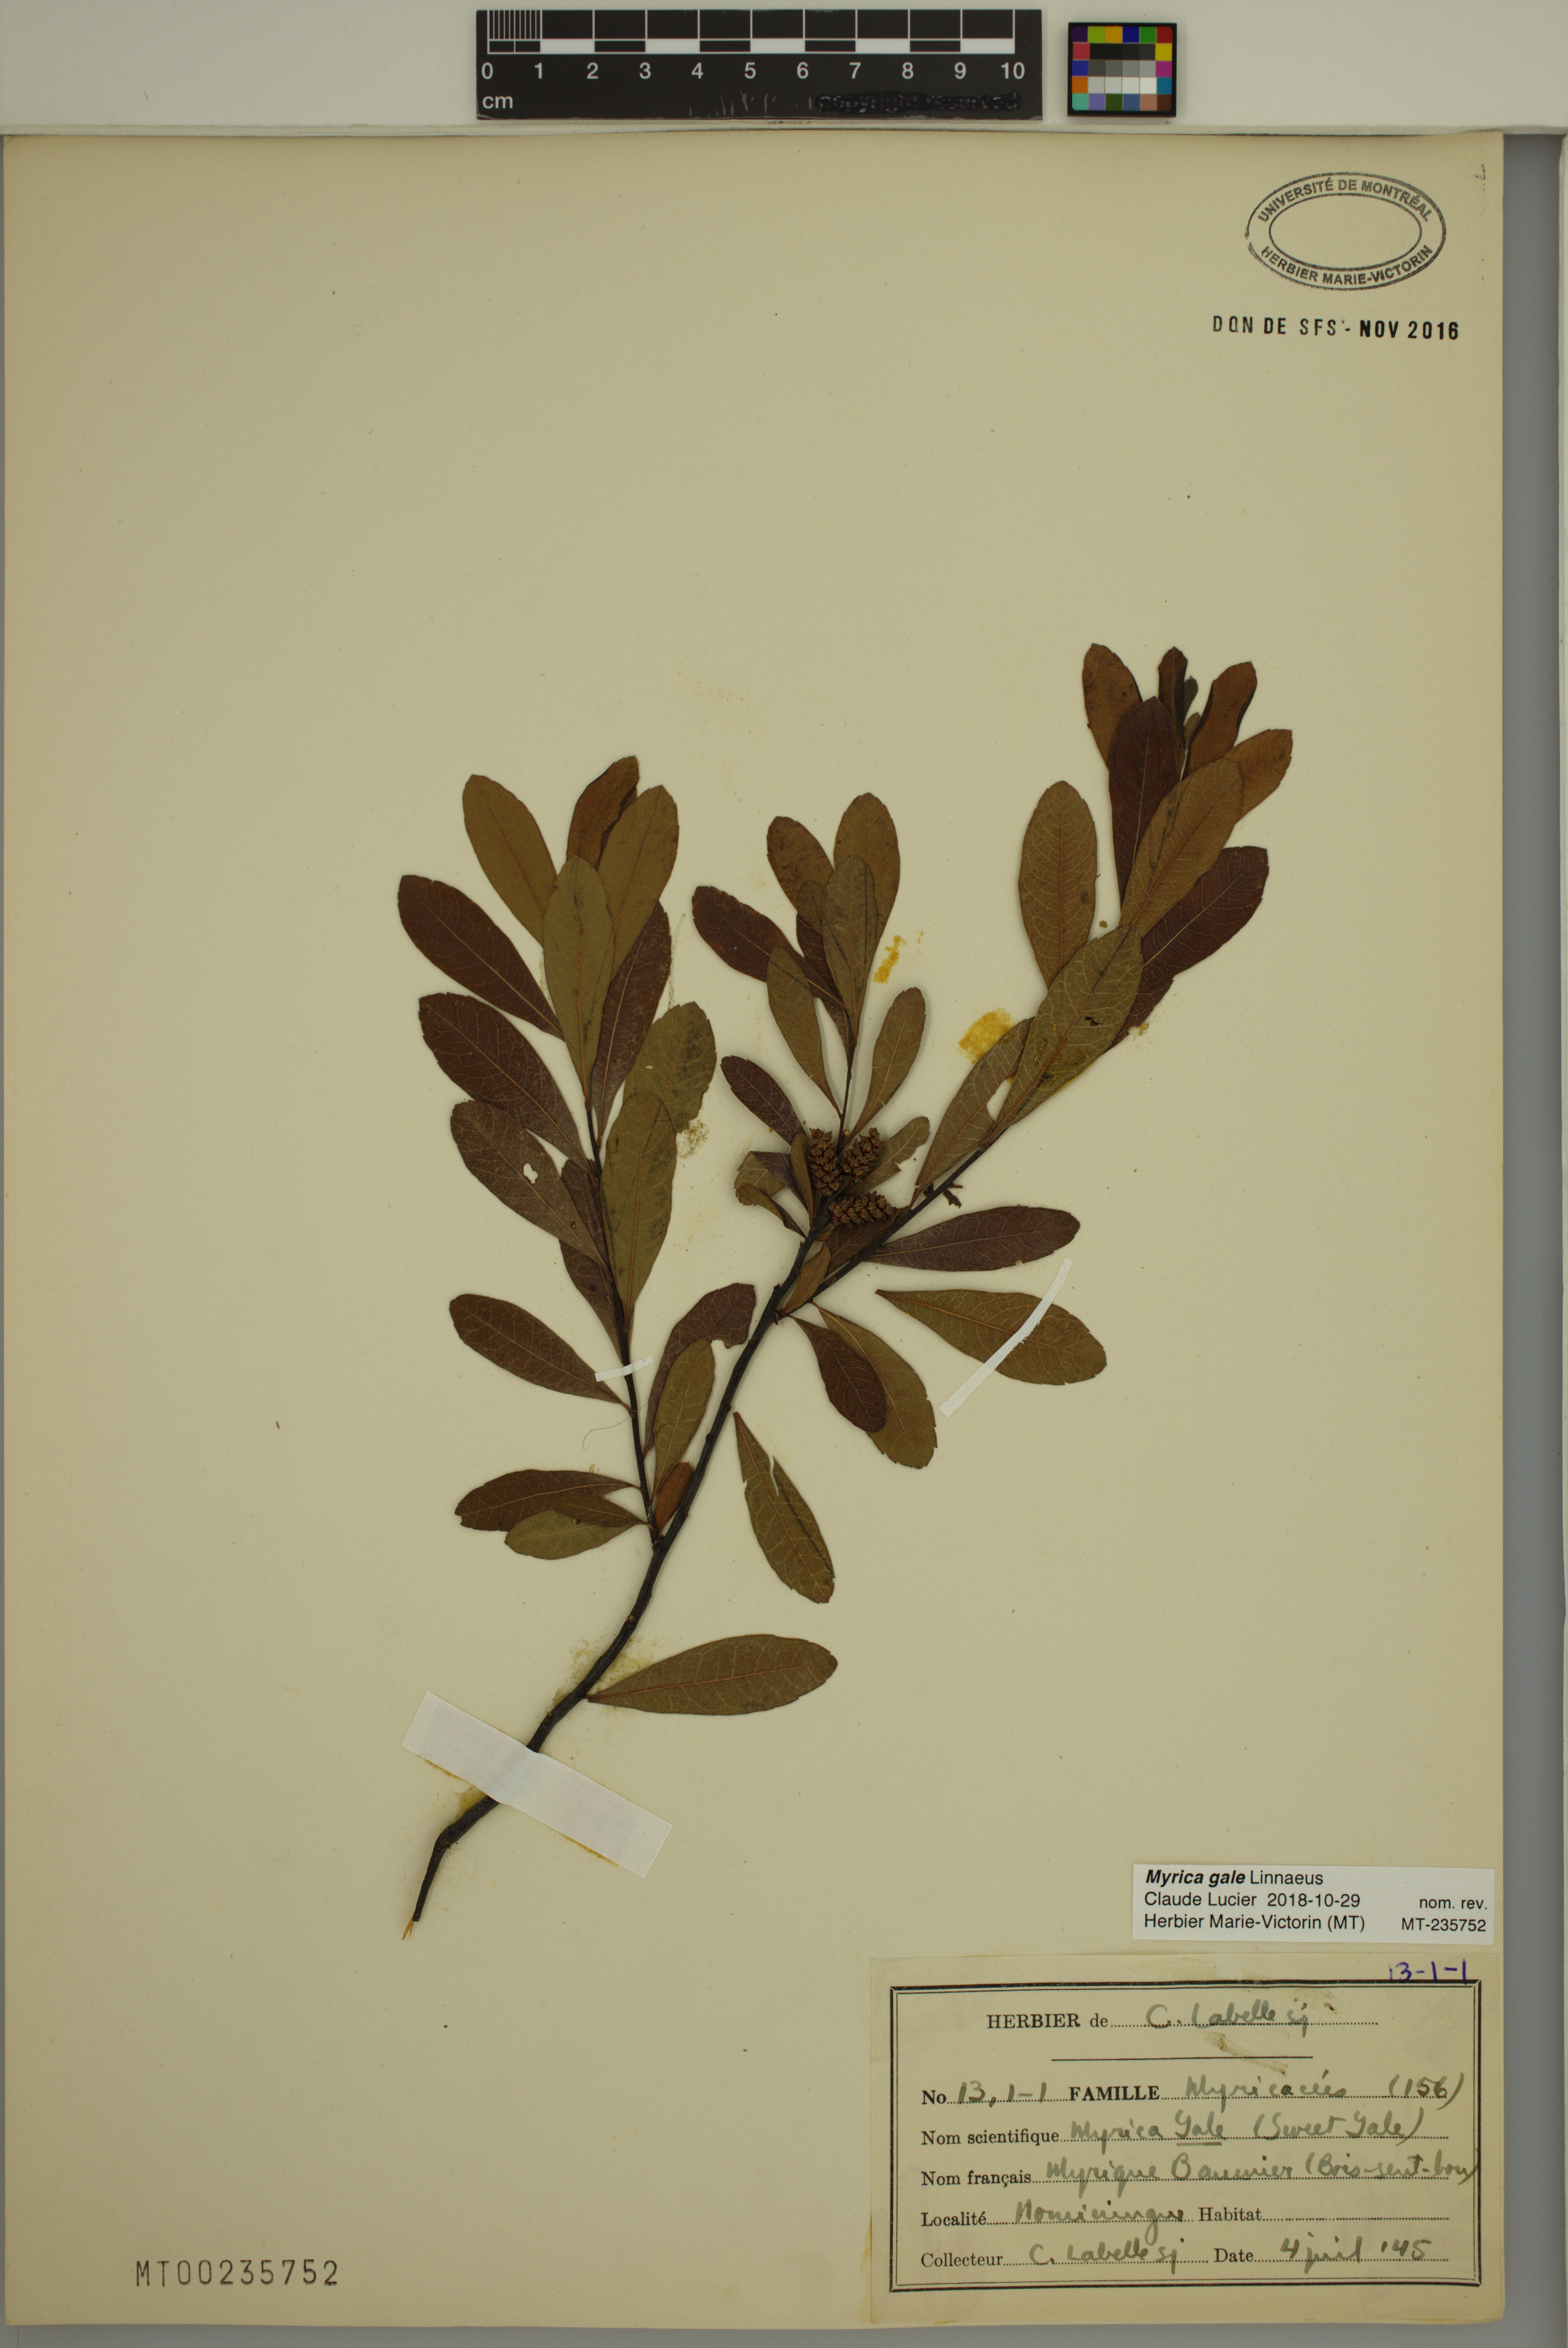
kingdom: Plantae
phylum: Tracheophyta
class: Magnoliopsida
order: Fagales
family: Myricaceae
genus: Myrica
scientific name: Myrica gale
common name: Sweet gale
